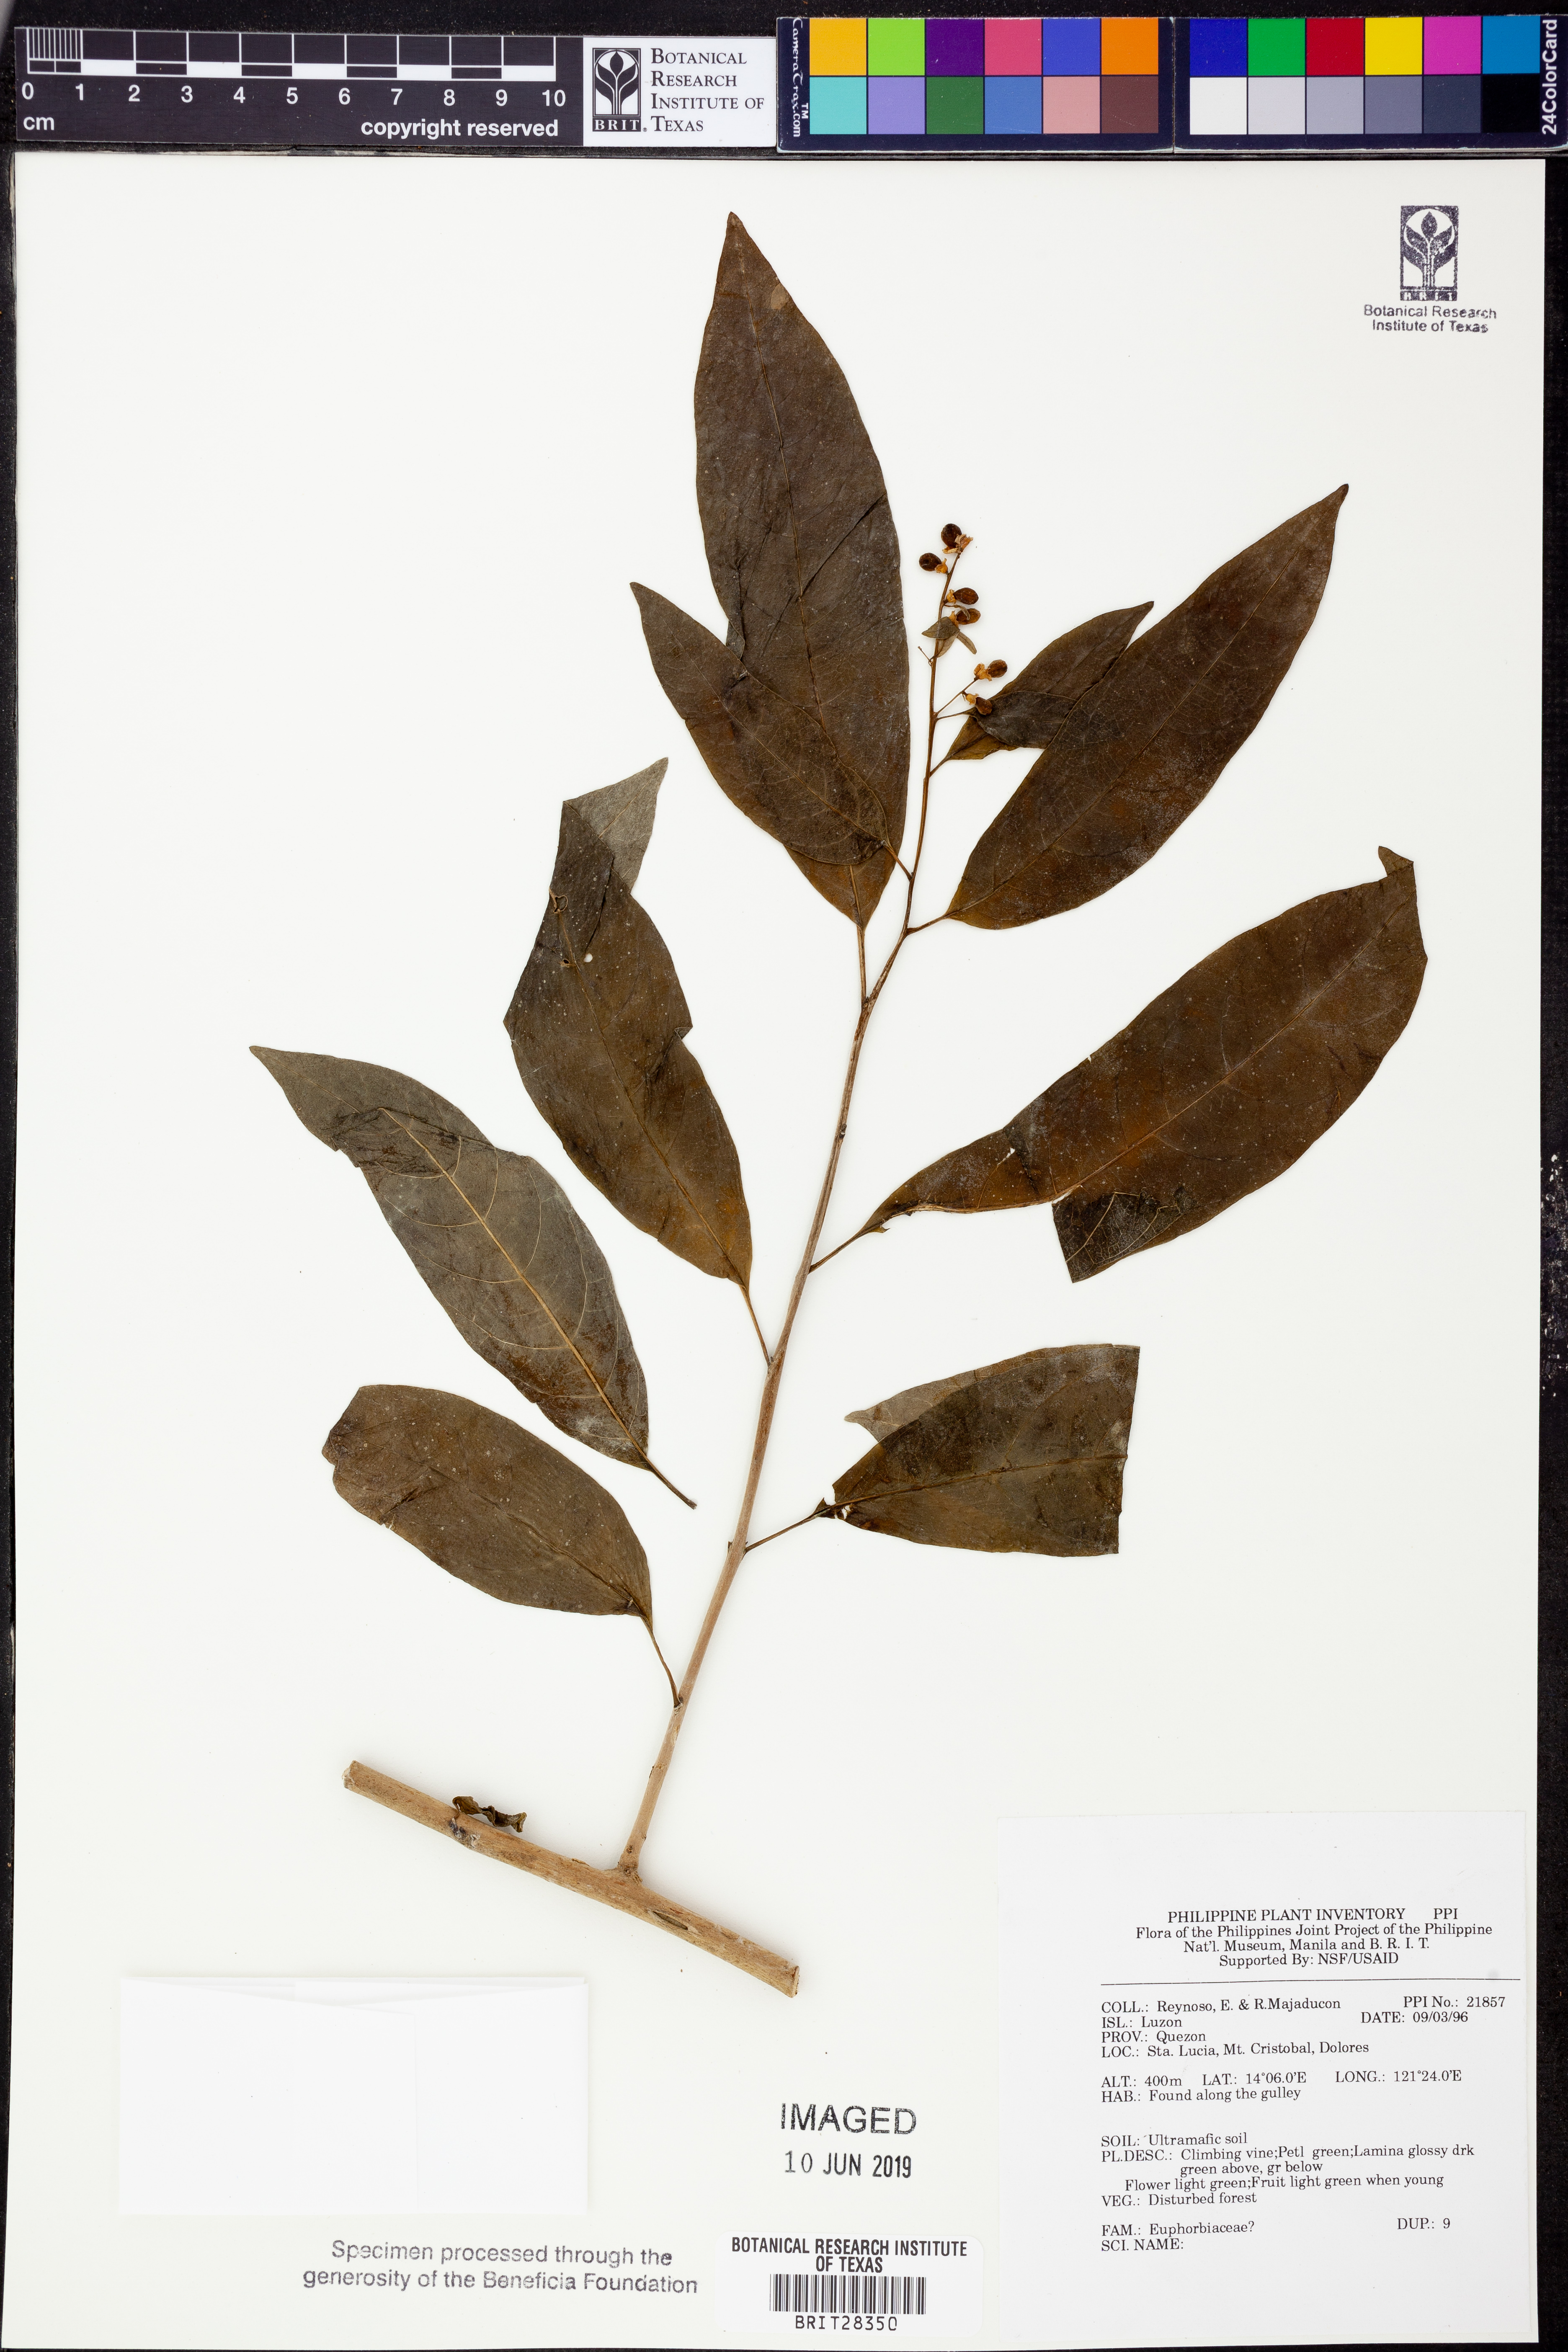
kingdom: Plantae
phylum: Tracheophyta
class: Magnoliopsida
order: Malpighiales
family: Euphorbiaceae
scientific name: Euphorbiaceae
